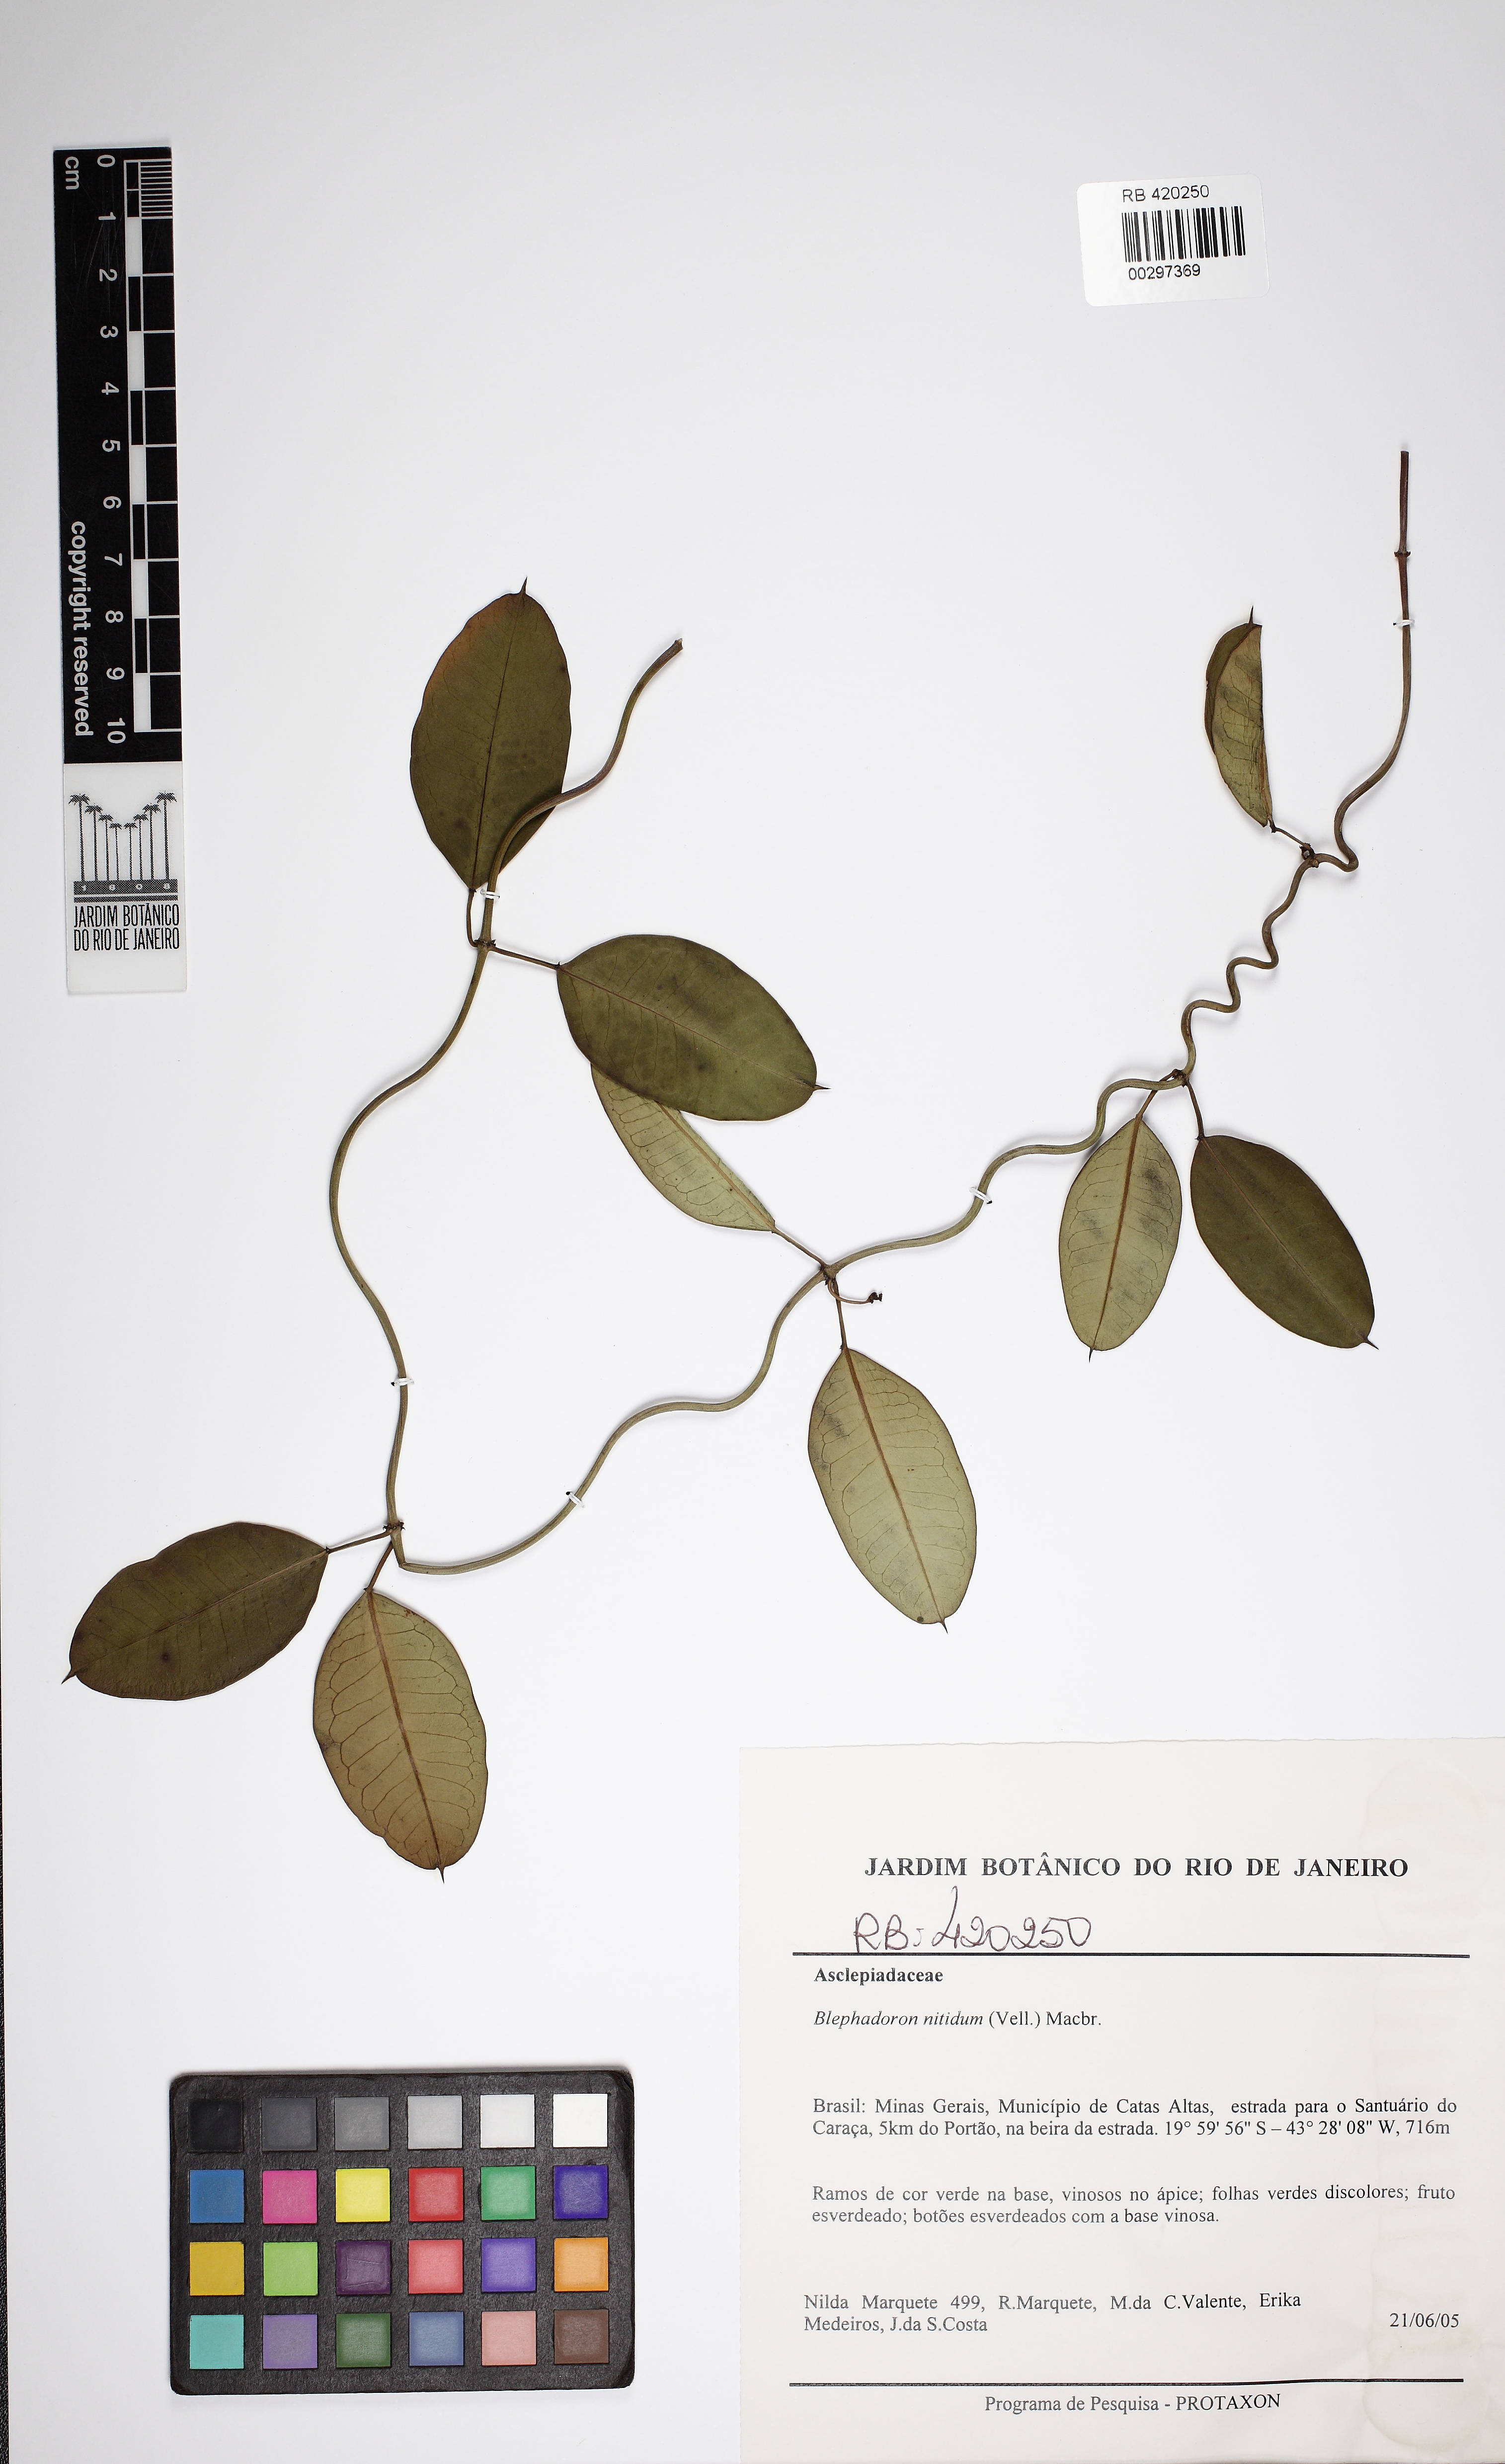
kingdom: Plantae
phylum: Tracheophyta
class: Magnoliopsida
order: Gentianales
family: Apocynaceae
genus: Blepharodon
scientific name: Blepharodon pictum
